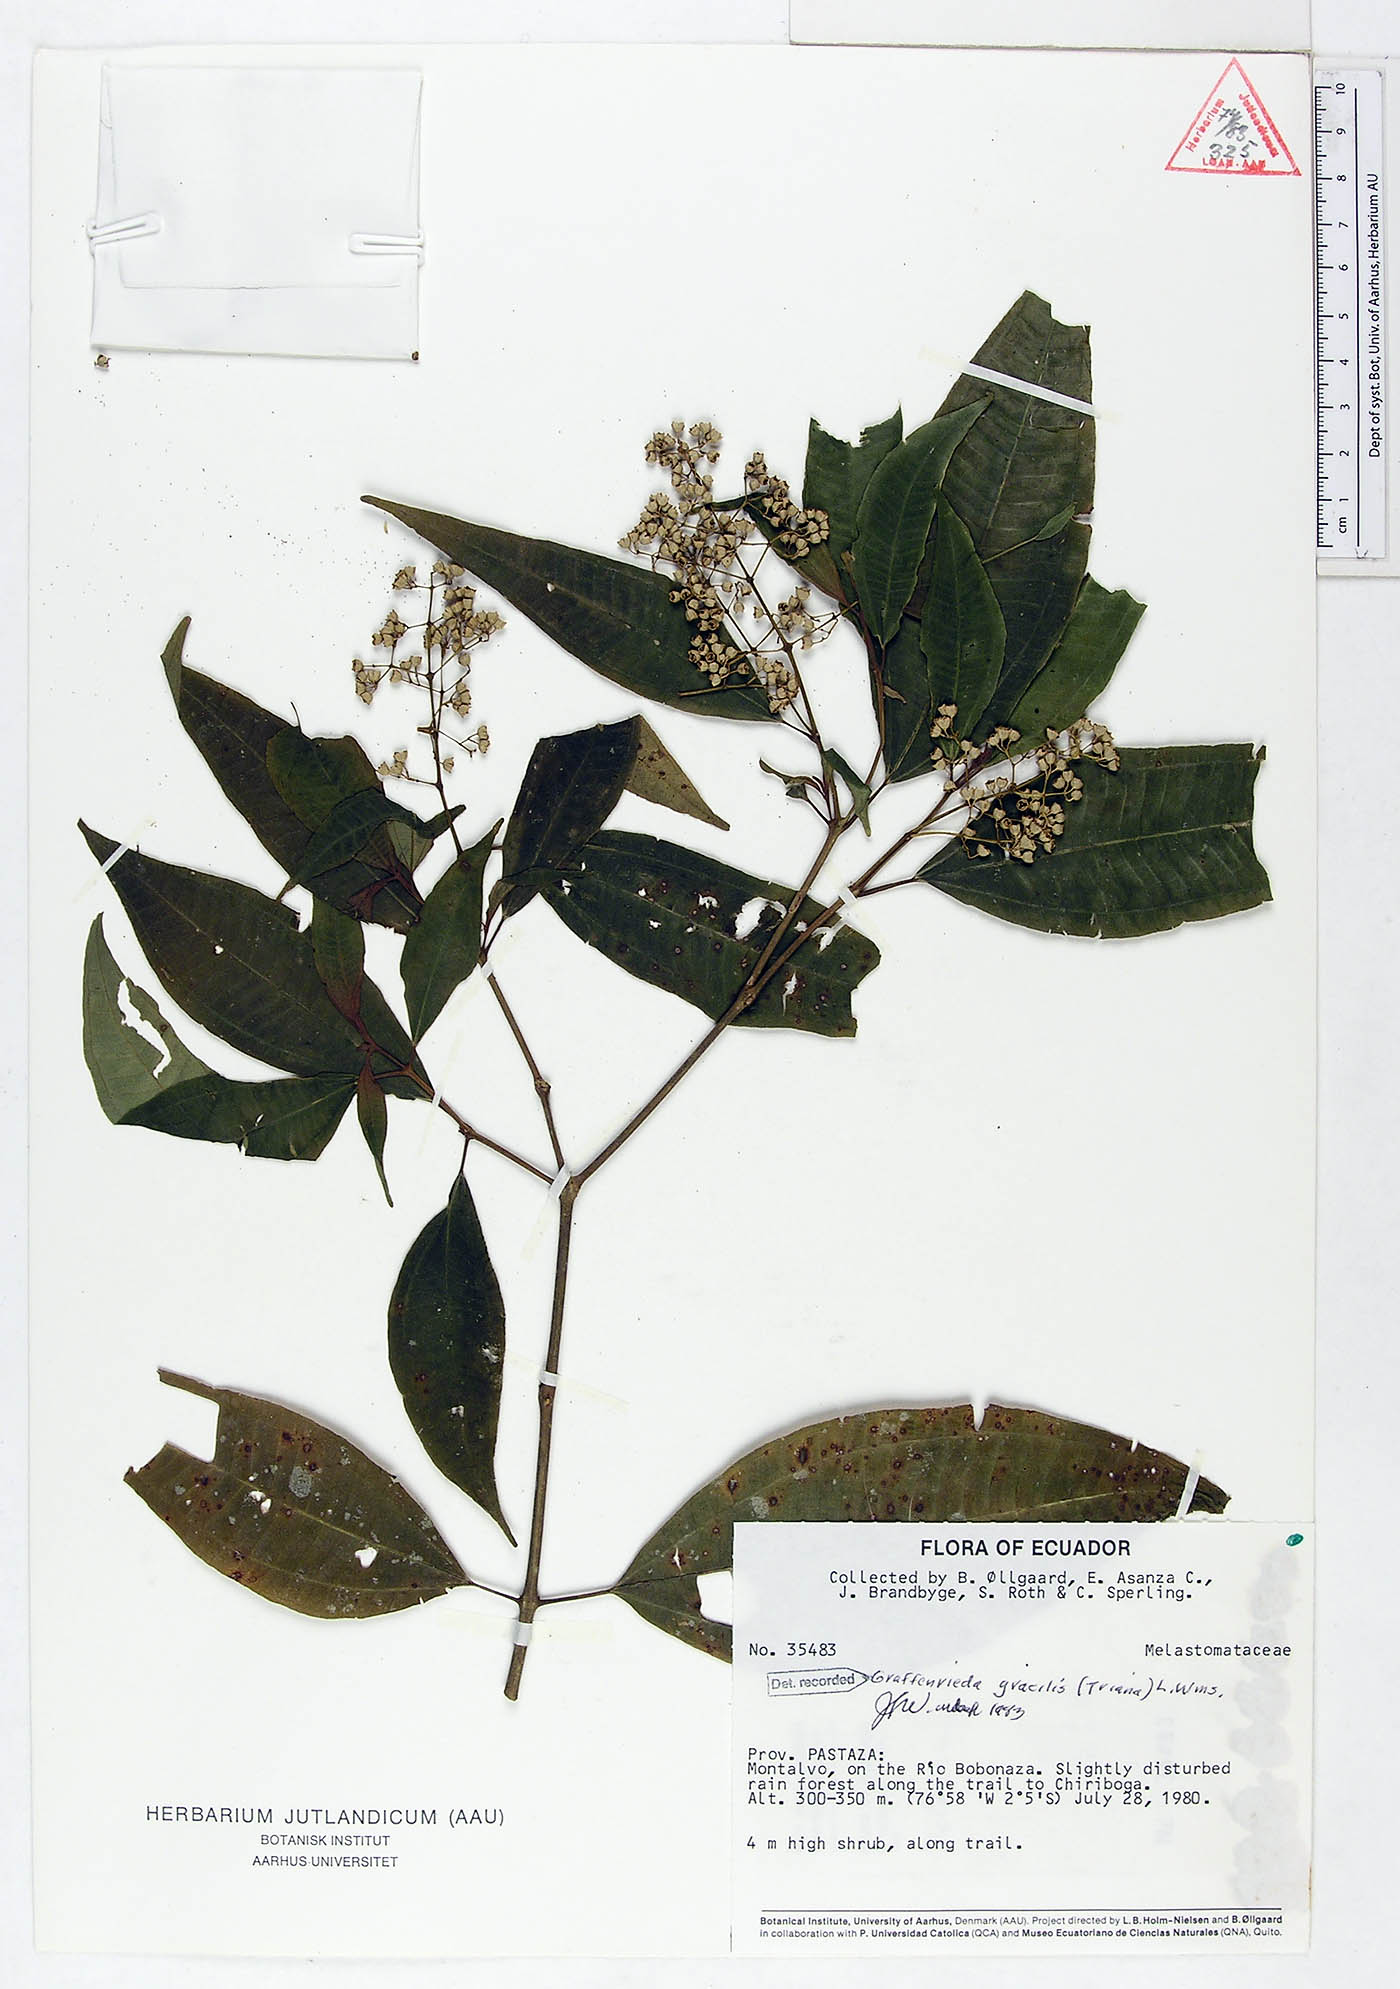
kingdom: Plantae
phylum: Tracheophyta
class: Magnoliopsida
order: Myrtales
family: Melastomataceae
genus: Graffenrieda
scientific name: Graffenrieda gracilis
